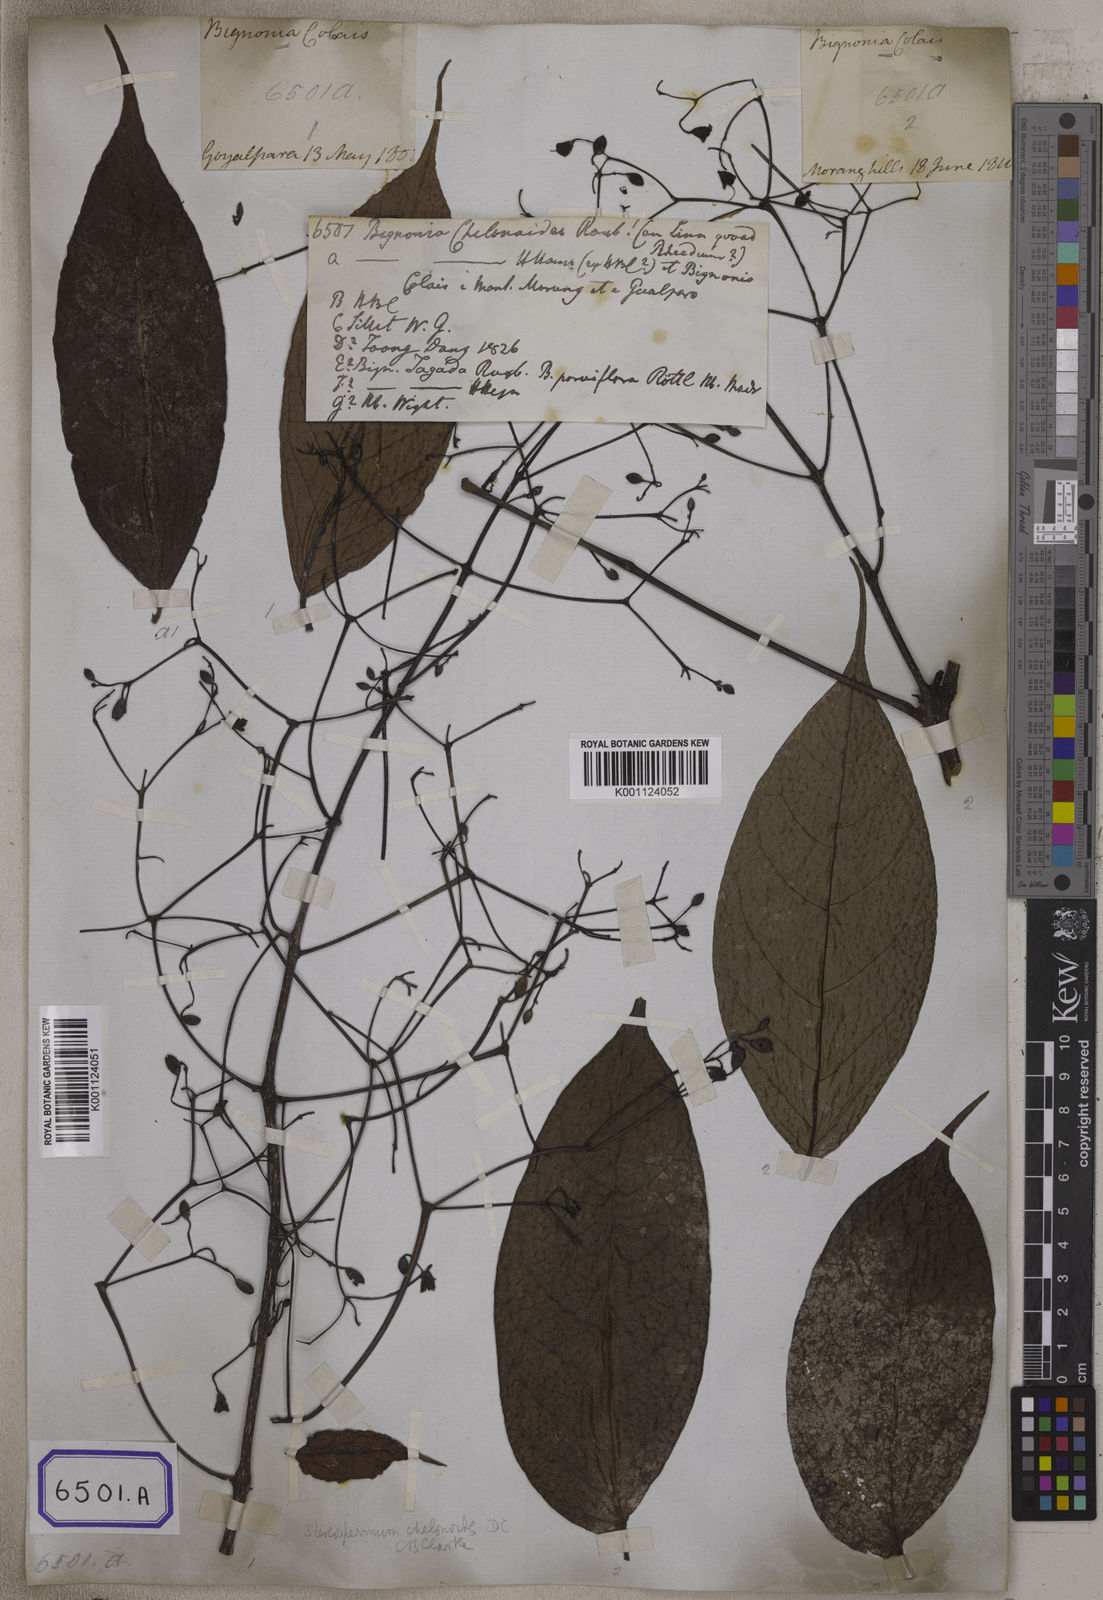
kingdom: Plantae
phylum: Tracheophyta
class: Magnoliopsida
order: Lamiales
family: Bignoniaceae
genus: Stereospermum
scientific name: Stereospermum chelonoides
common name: Fragrant padritree
